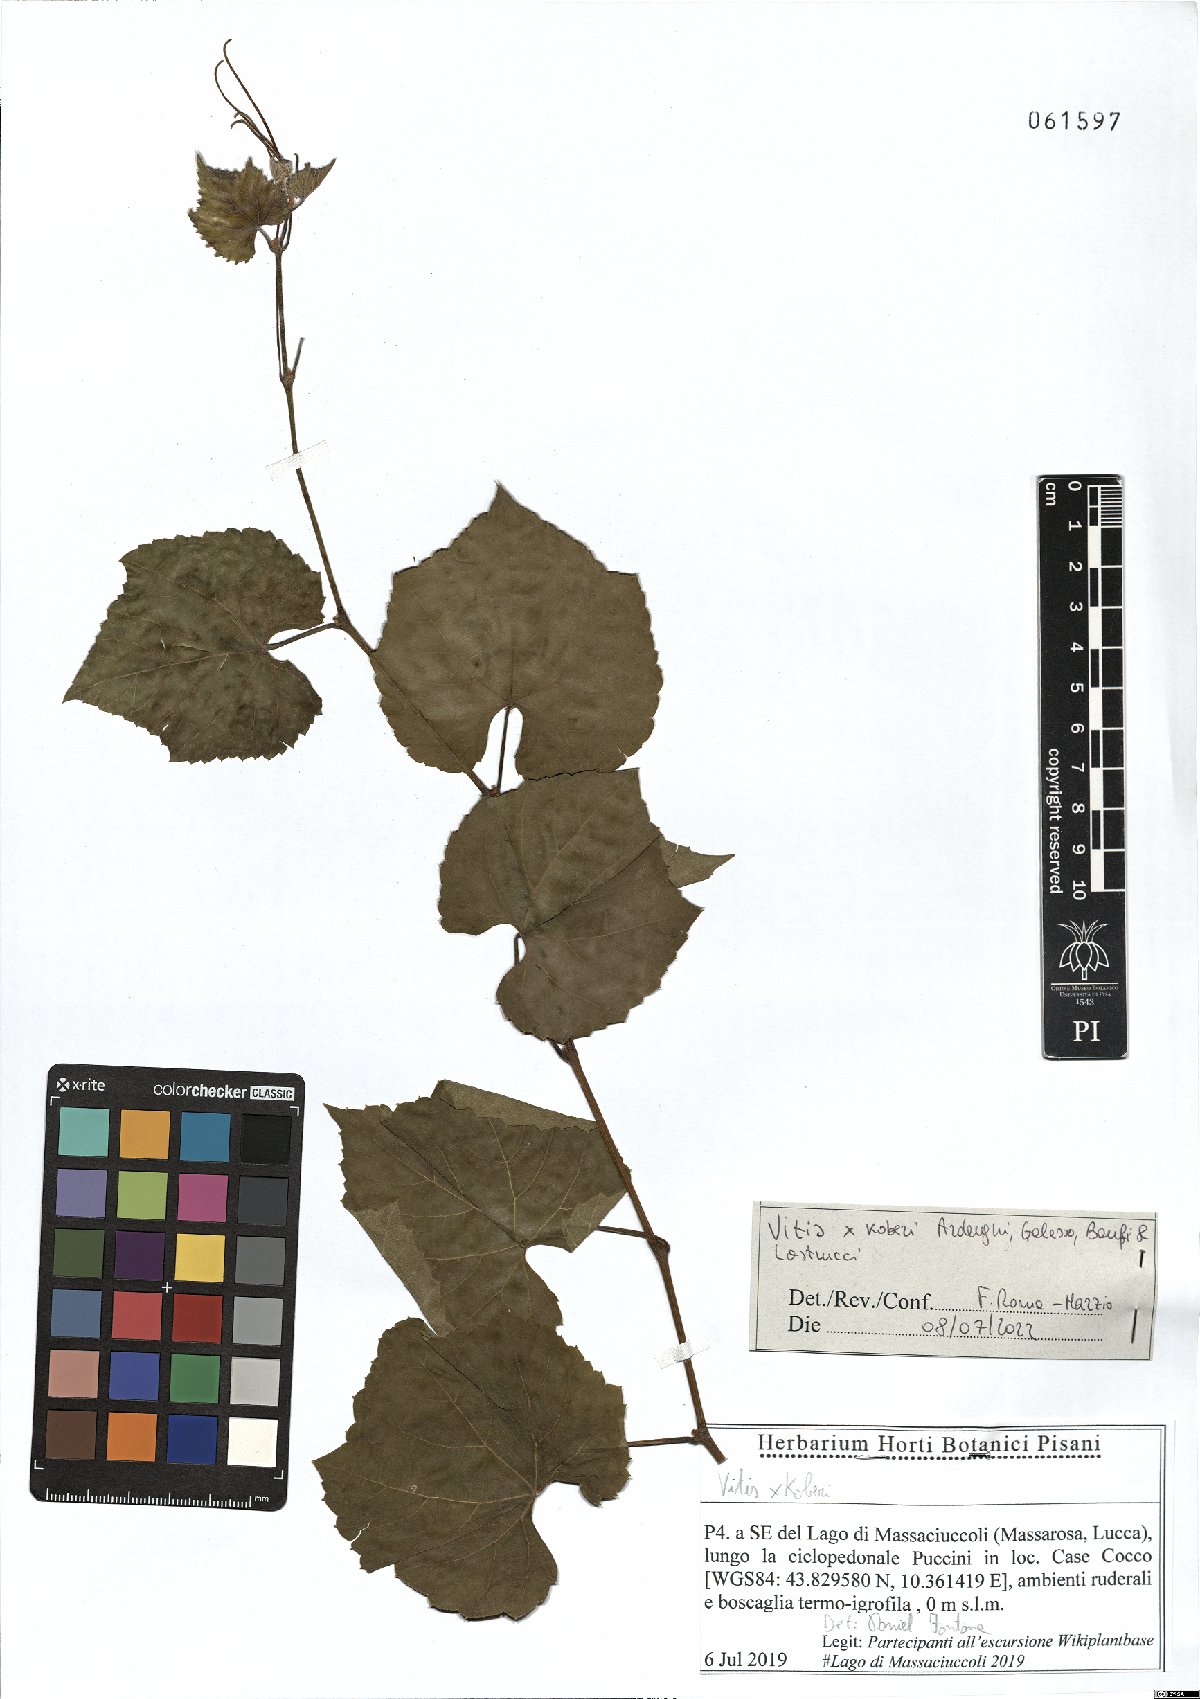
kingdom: Plantae
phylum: Tracheophyta
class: Magnoliopsida
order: Vitales
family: Vitaceae
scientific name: Vitaceae
